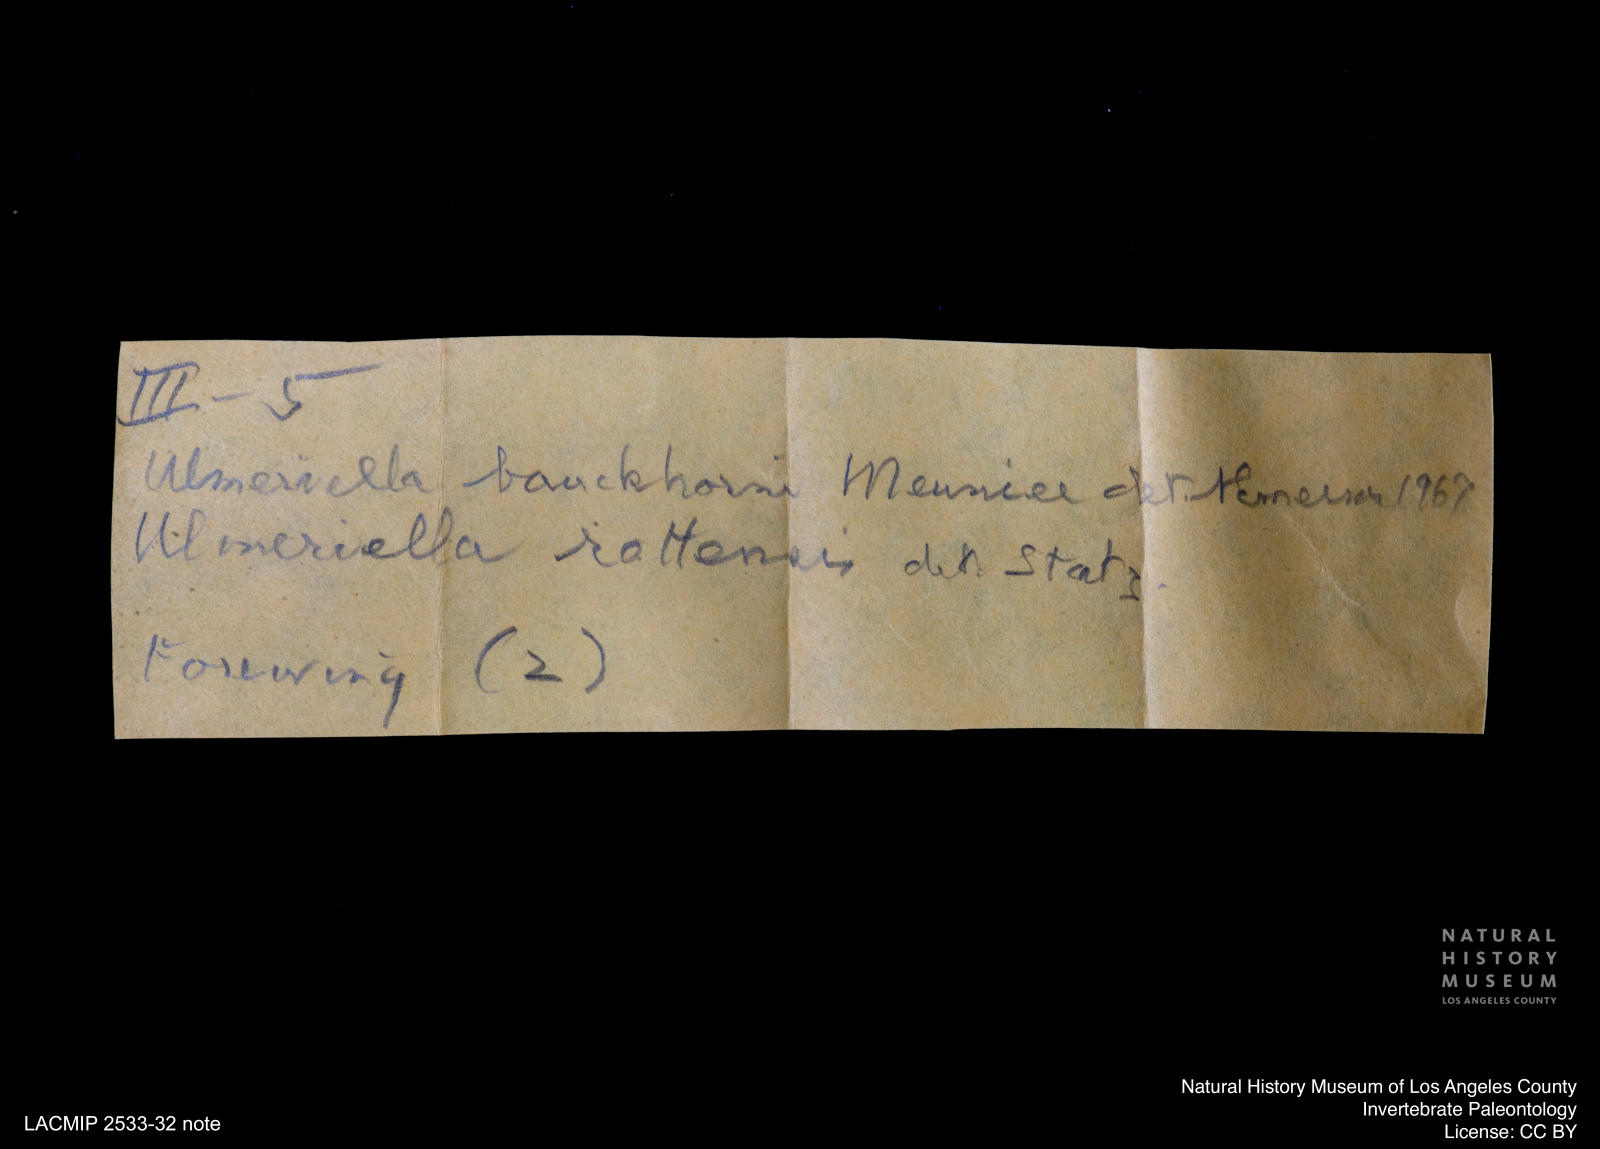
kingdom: Animalia
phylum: Arthropoda
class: Insecta
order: Blattodea
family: Hodotermitidae
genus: Ulmeriella
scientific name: Ulmeriella bauckhorni
